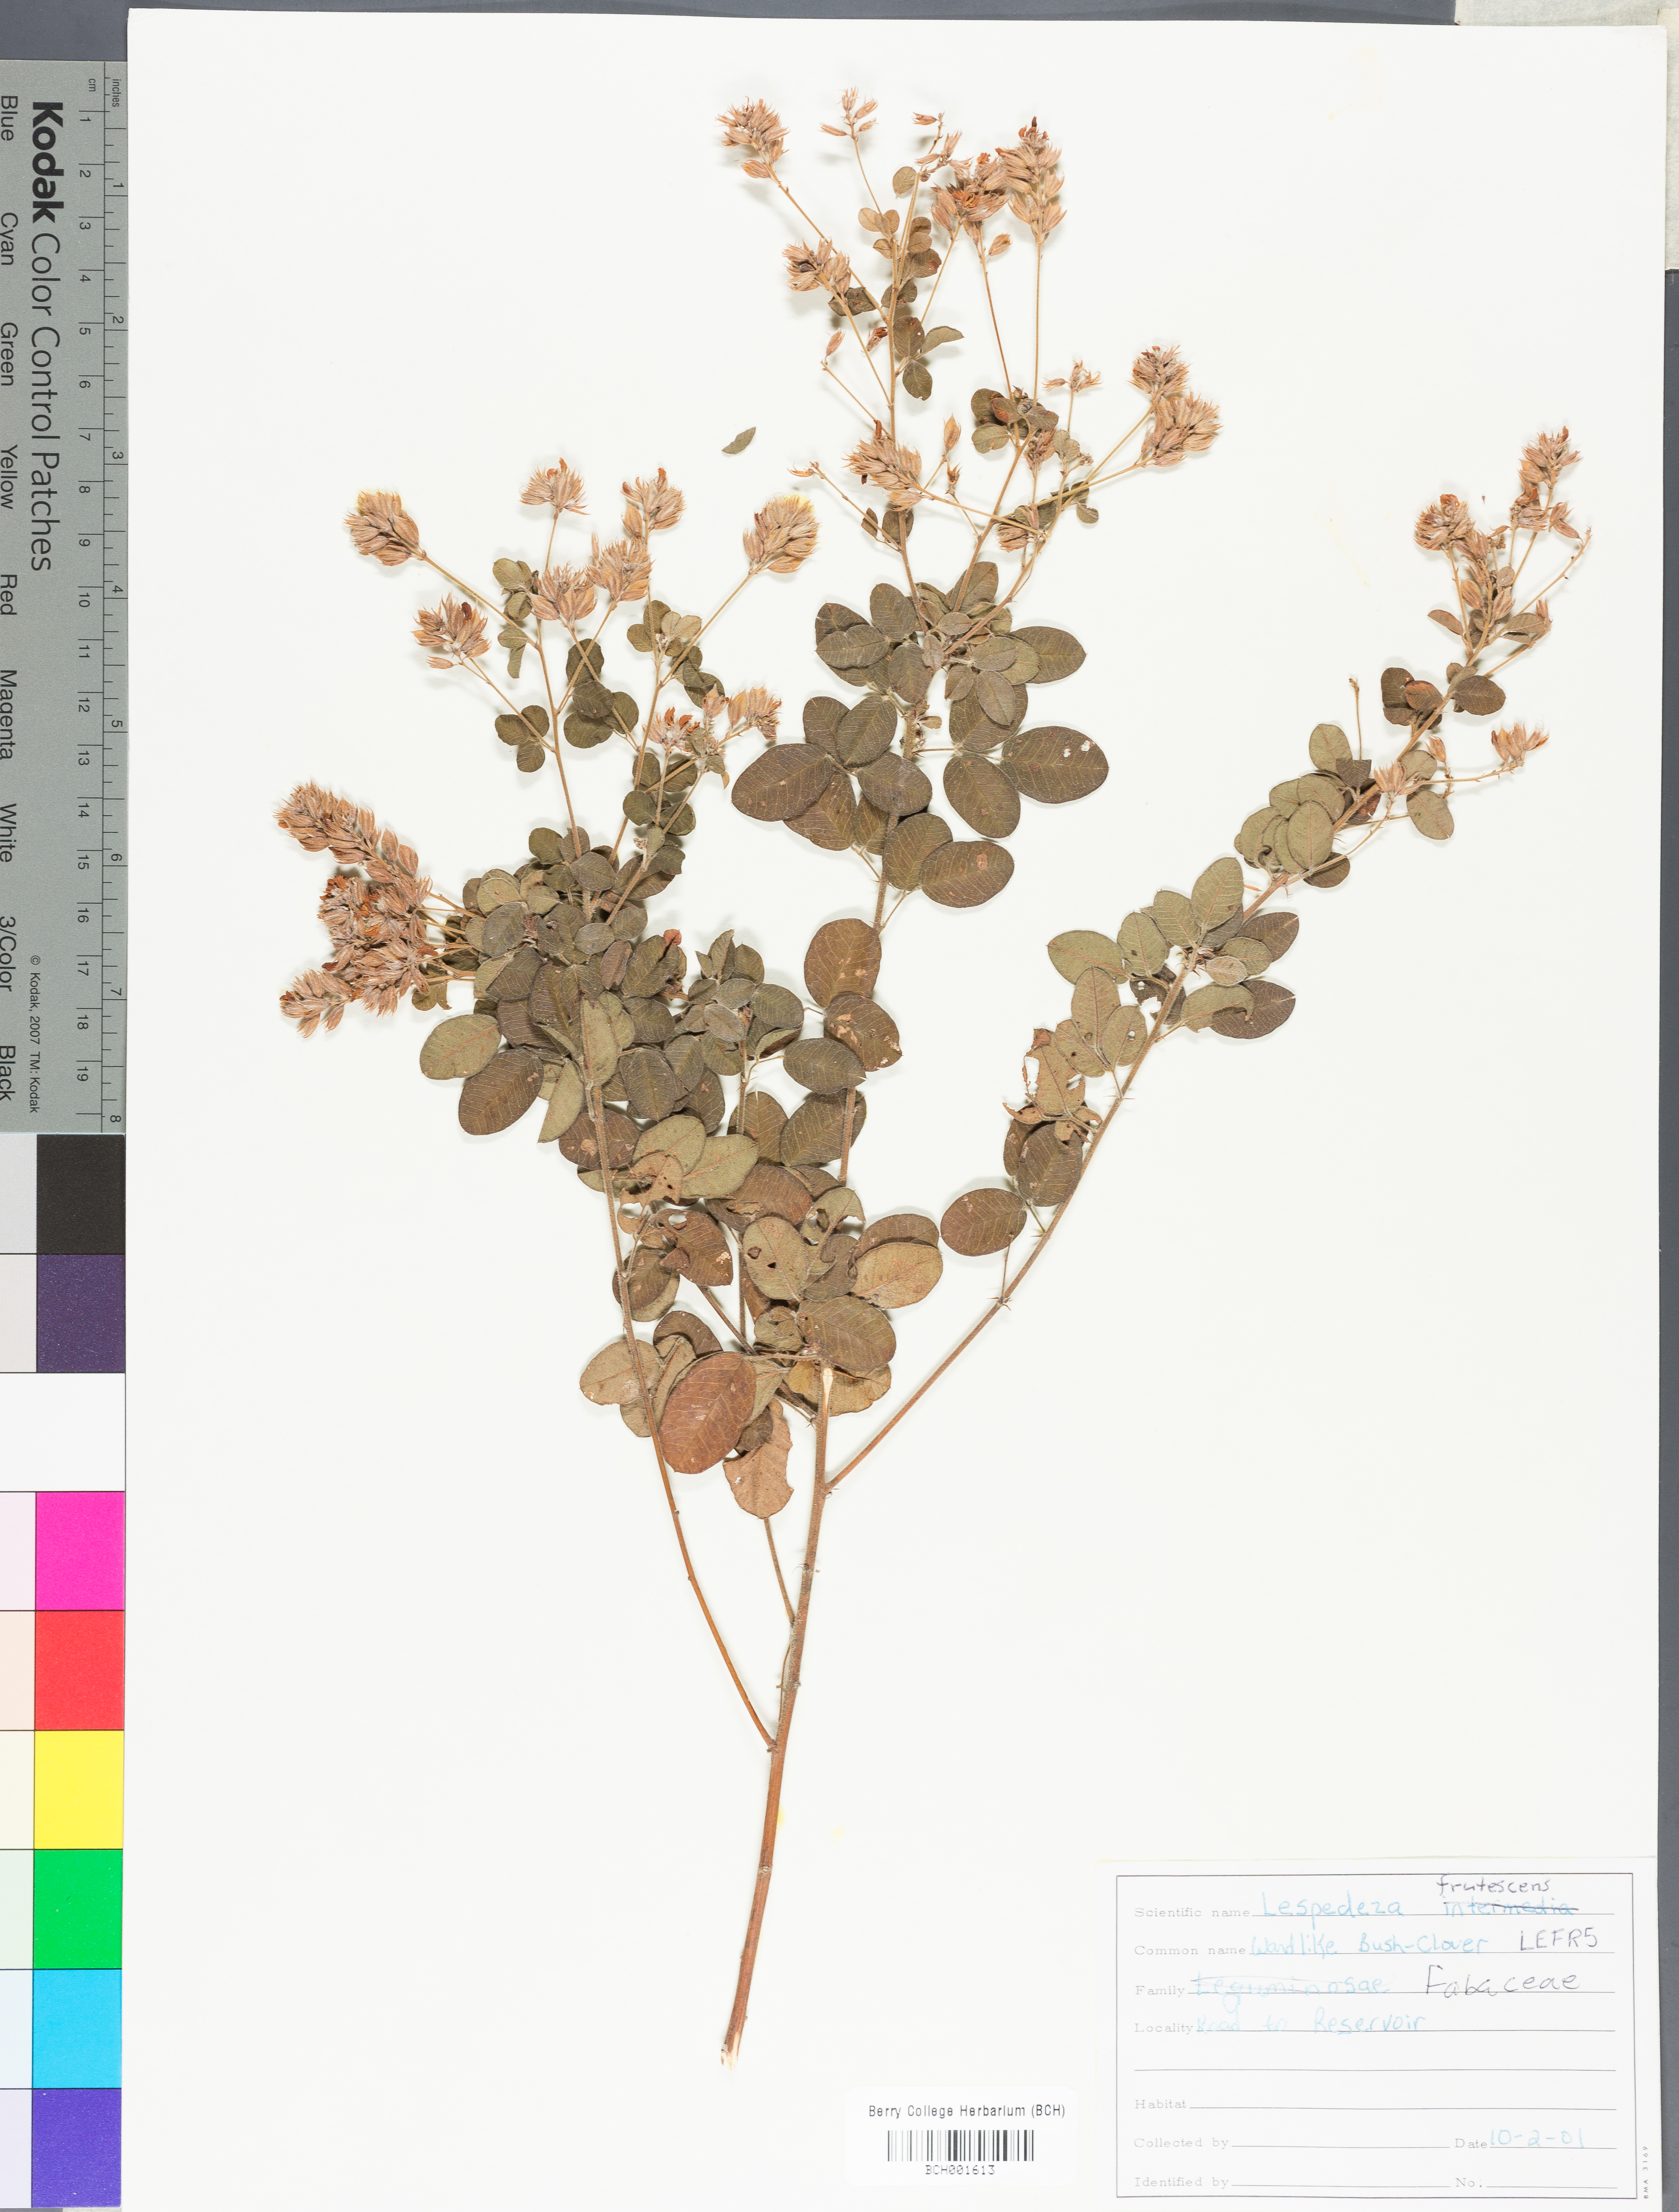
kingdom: Plantae
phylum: Tracheophyta
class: Magnoliopsida
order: Fabales
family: Fabaceae
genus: Lespedeza
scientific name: Lespedeza violacea
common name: Wand bush-clover
